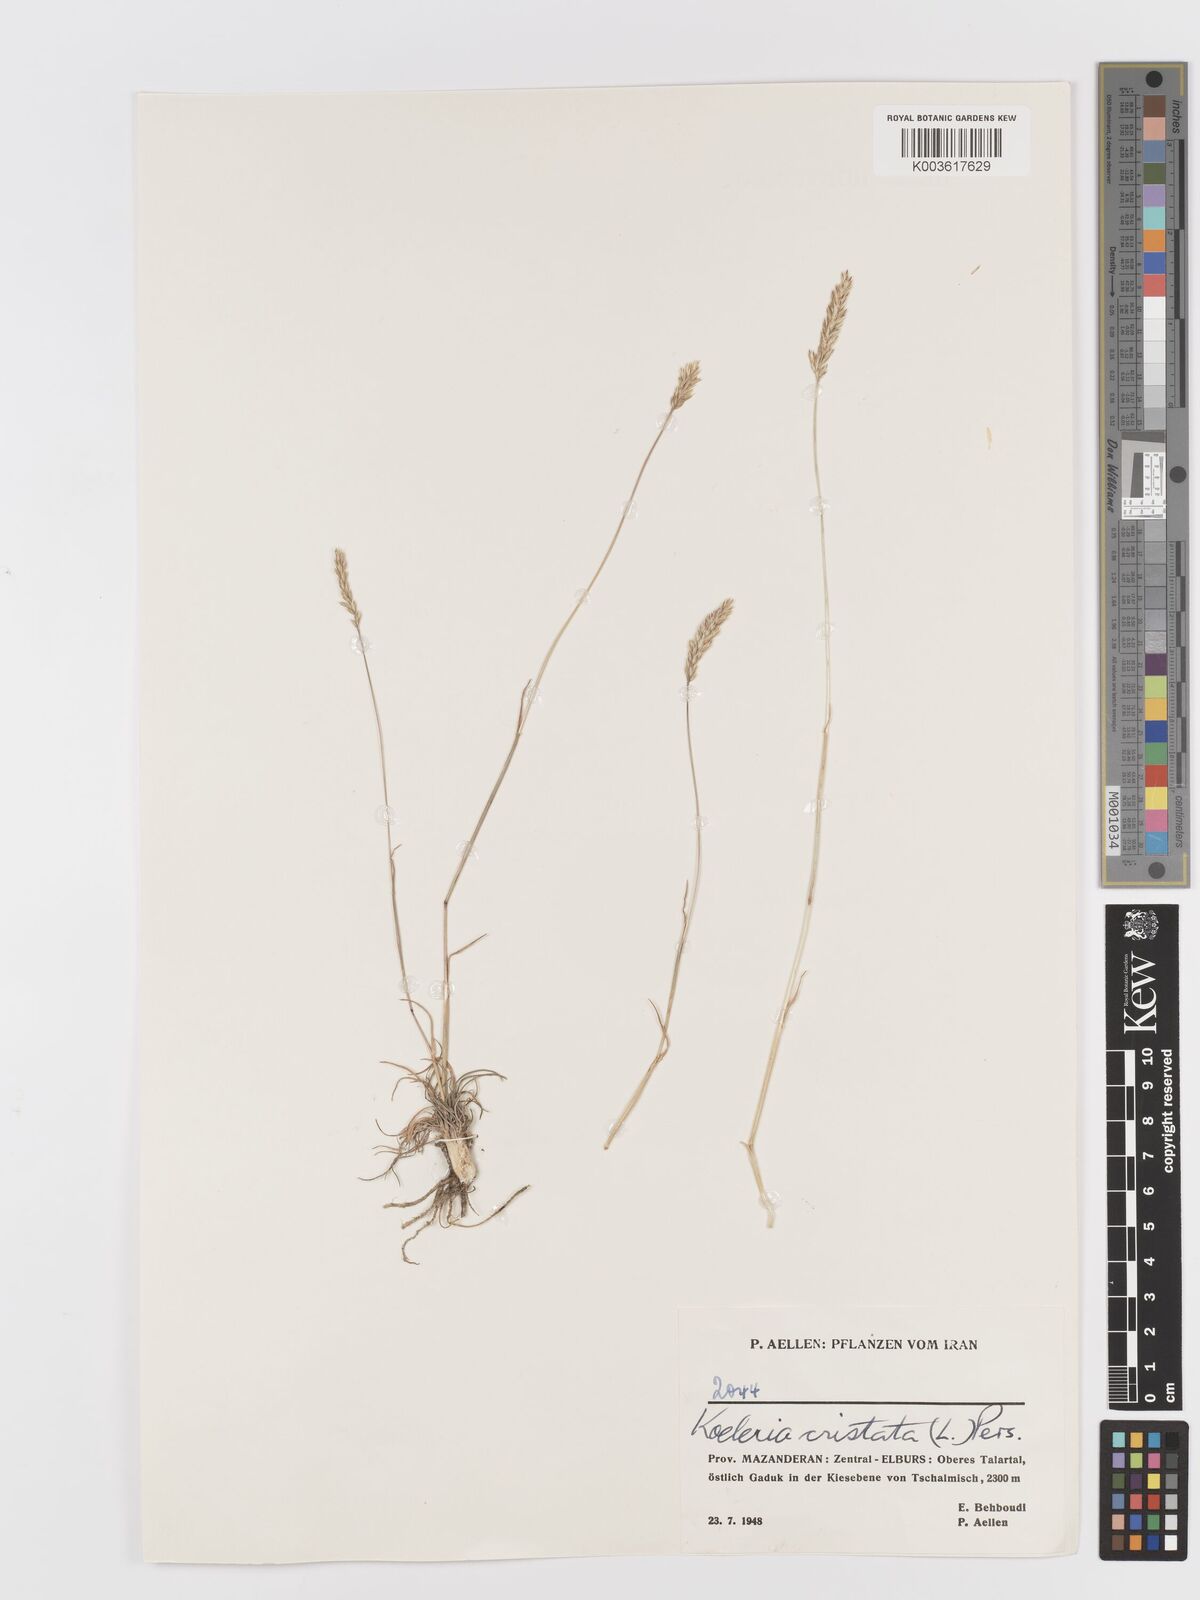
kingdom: Plantae
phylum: Tracheophyta
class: Liliopsida
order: Poales
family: Poaceae
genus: Koeleria
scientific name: Koeleria macrantha
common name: Crested hair-grass
